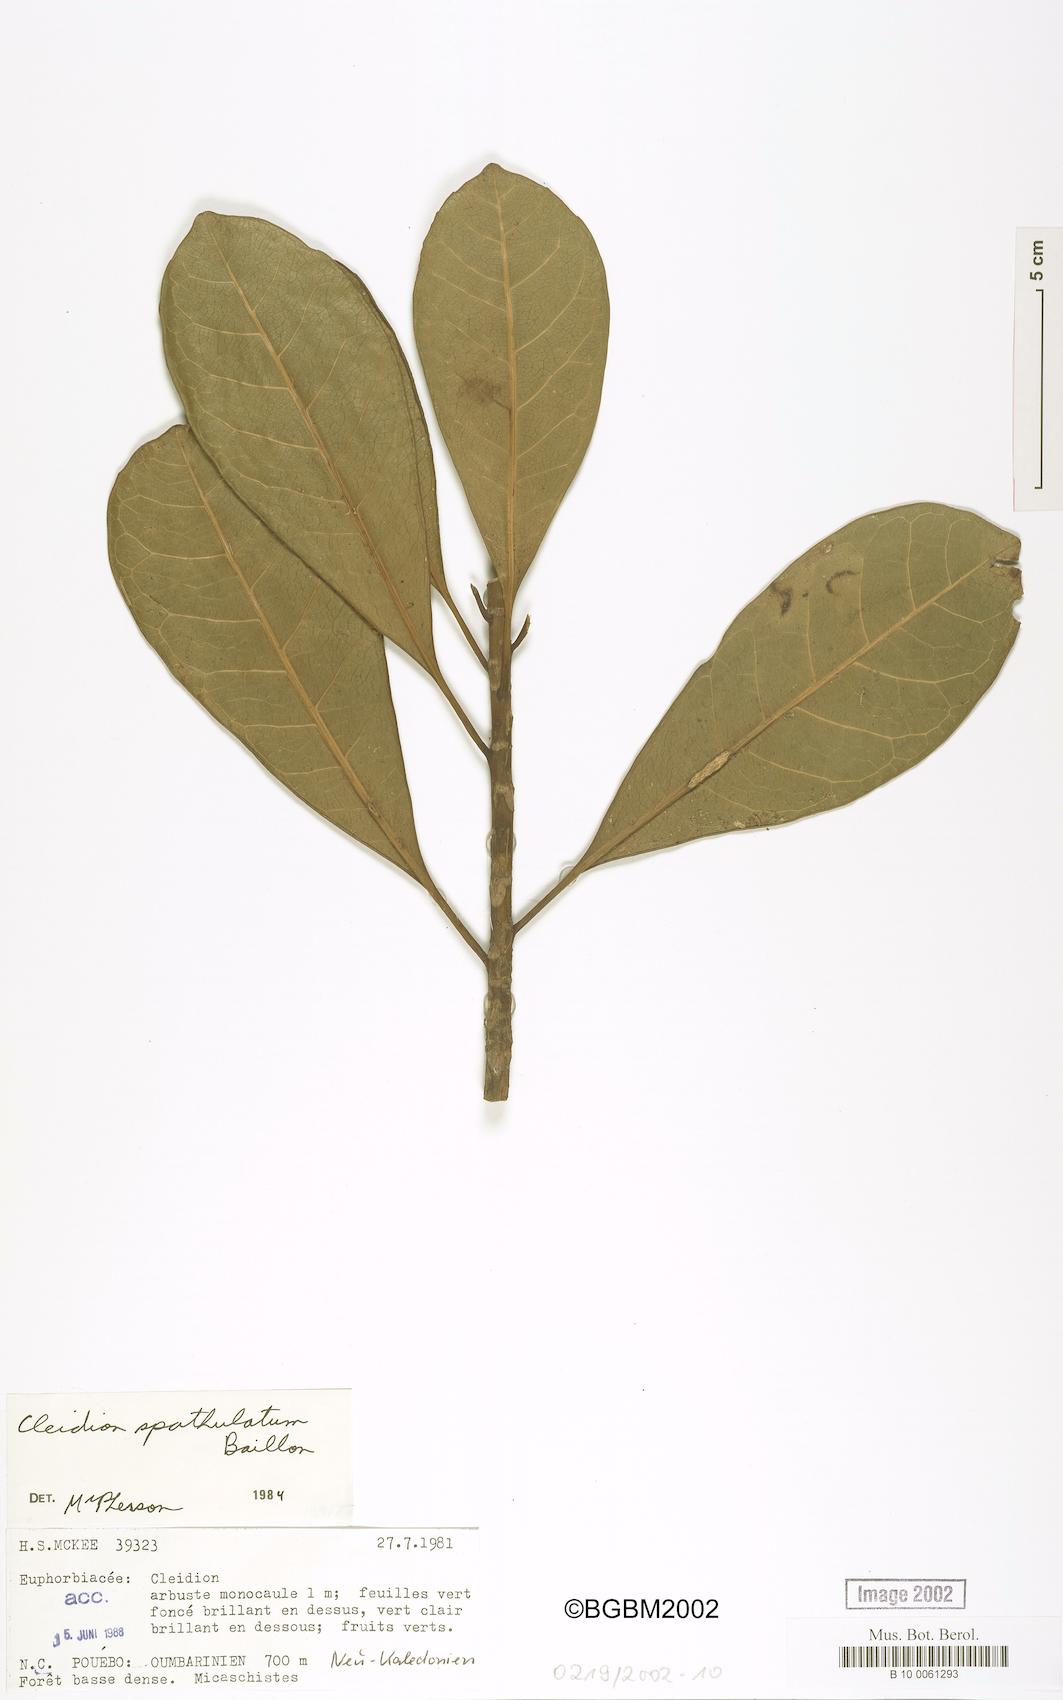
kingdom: Plantae
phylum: Tracheophyta
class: Magnoliopsida
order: Malpighiales
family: Euphorbiaceae
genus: Cleidion
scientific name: Cleidion spathulatum
